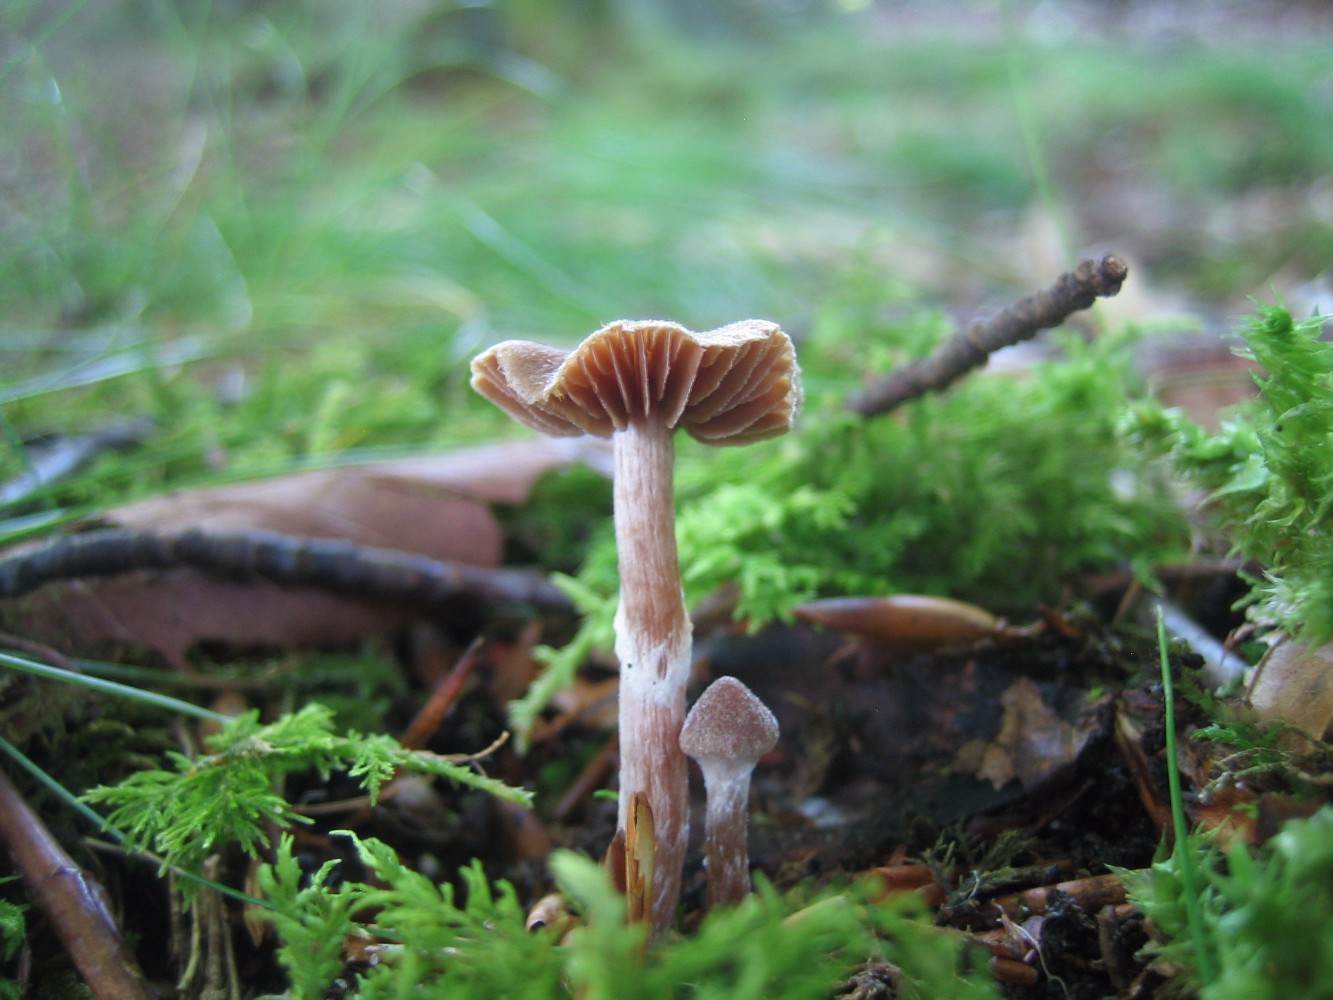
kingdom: Fungi
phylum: Basidiomycota
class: Agaricomycetes
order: Agaricales
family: Cortinariaceae
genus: Cortinarius
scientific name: Cortinarius
